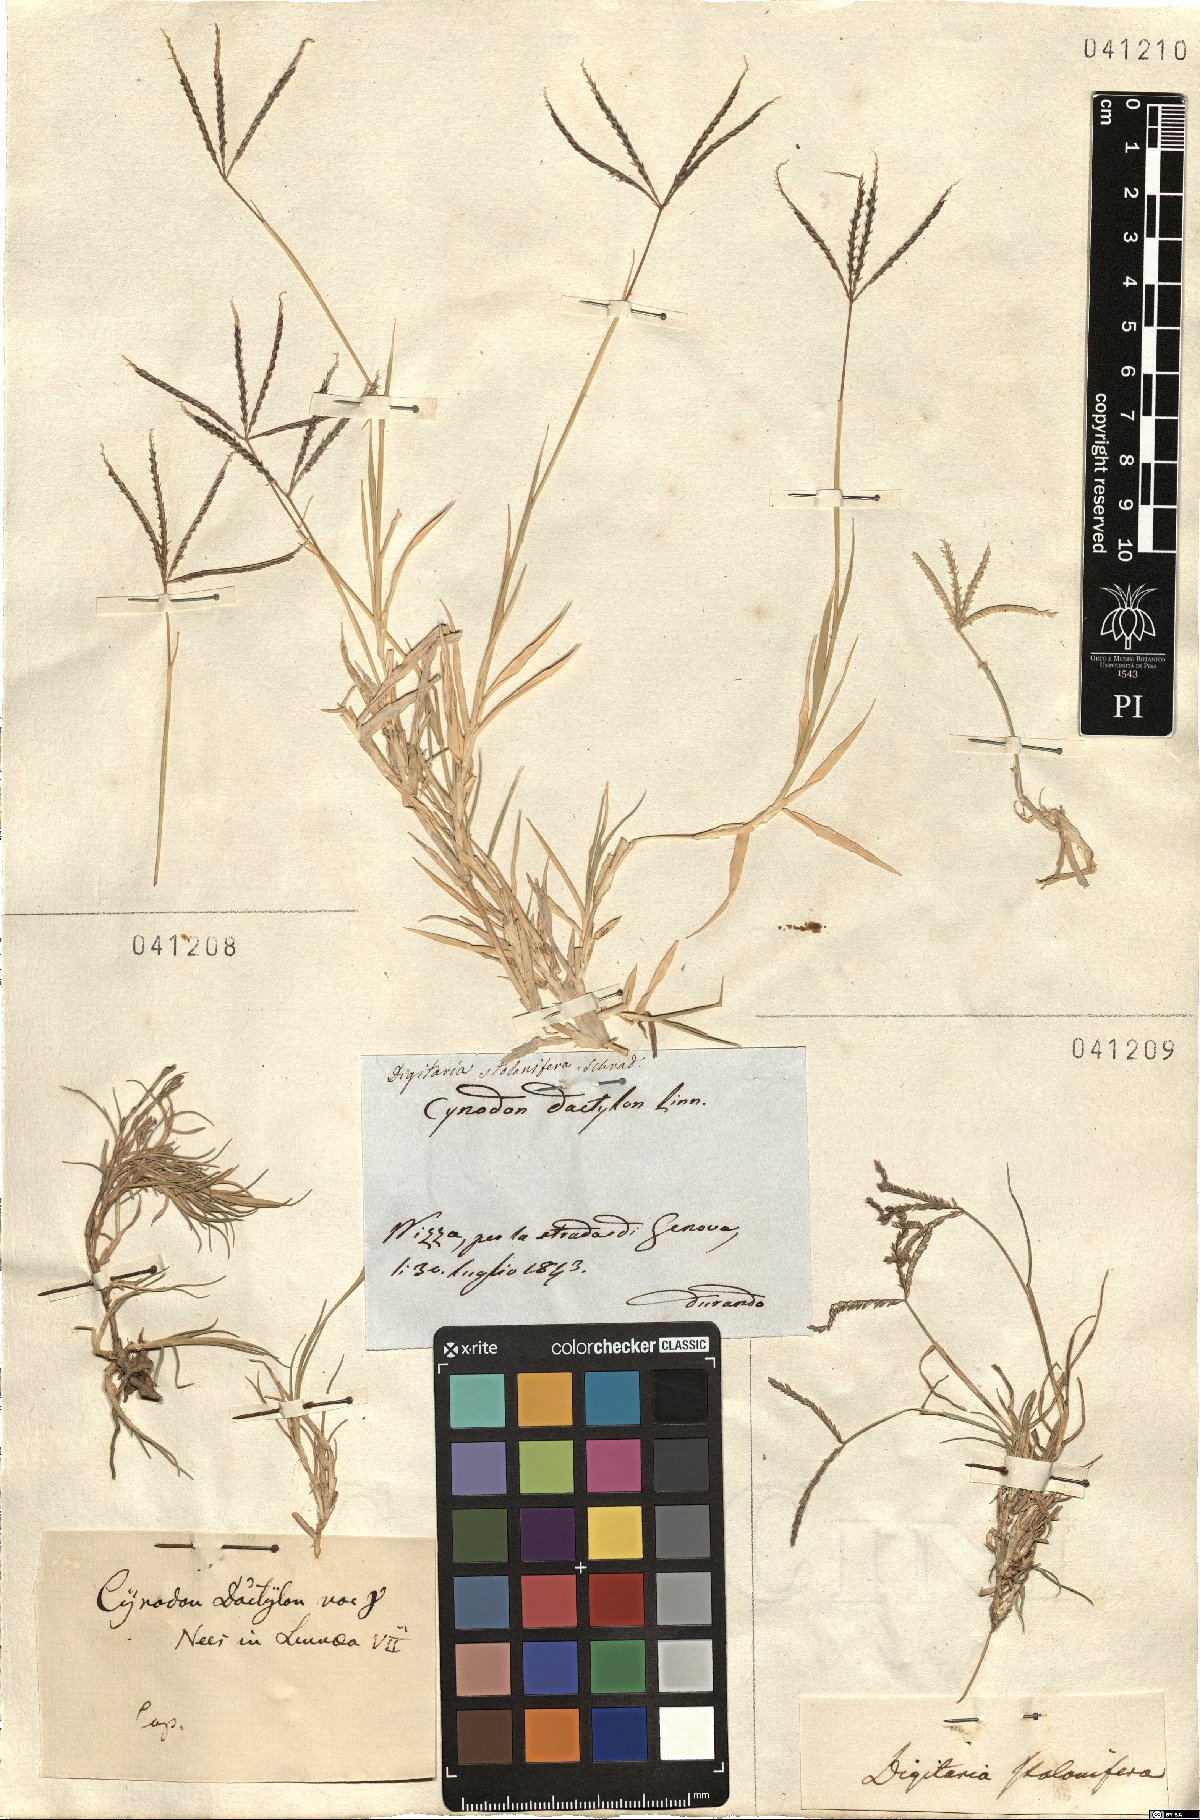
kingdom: Plantae
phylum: Tracheophyta
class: Liliopsida
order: Poales
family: Poaceae
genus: Cynodon
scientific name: Cynodon dactylon
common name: Bermuda grass
